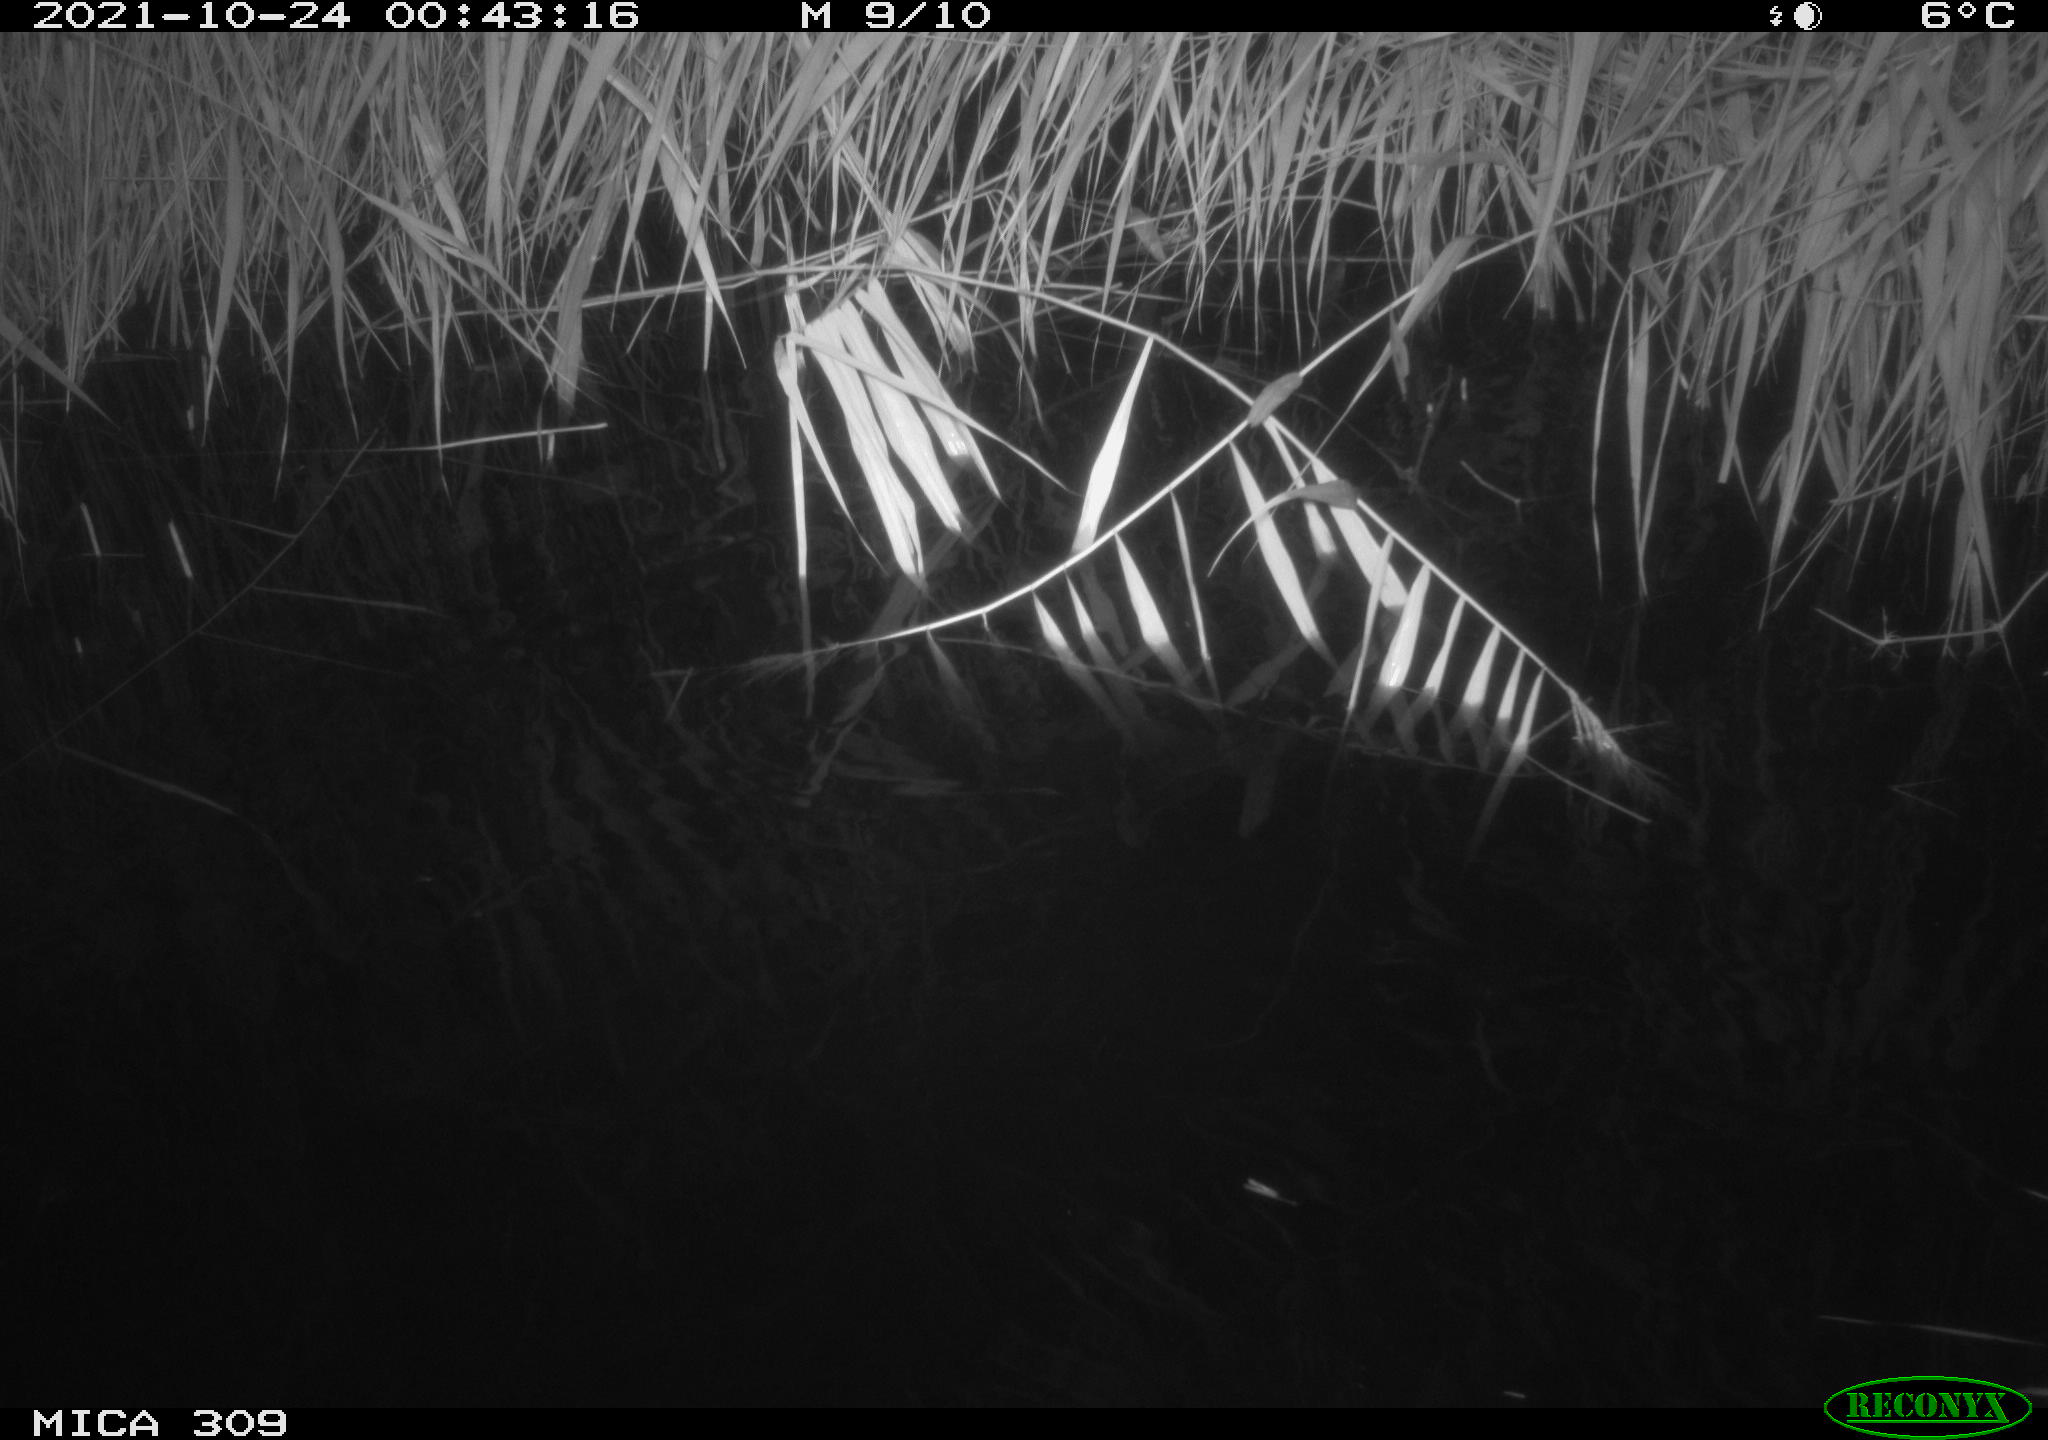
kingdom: Animalia
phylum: Chordata
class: Mammalia
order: Rodentia
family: Muridae
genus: Rattus
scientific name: Rattus norvegicus
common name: Brown rat
